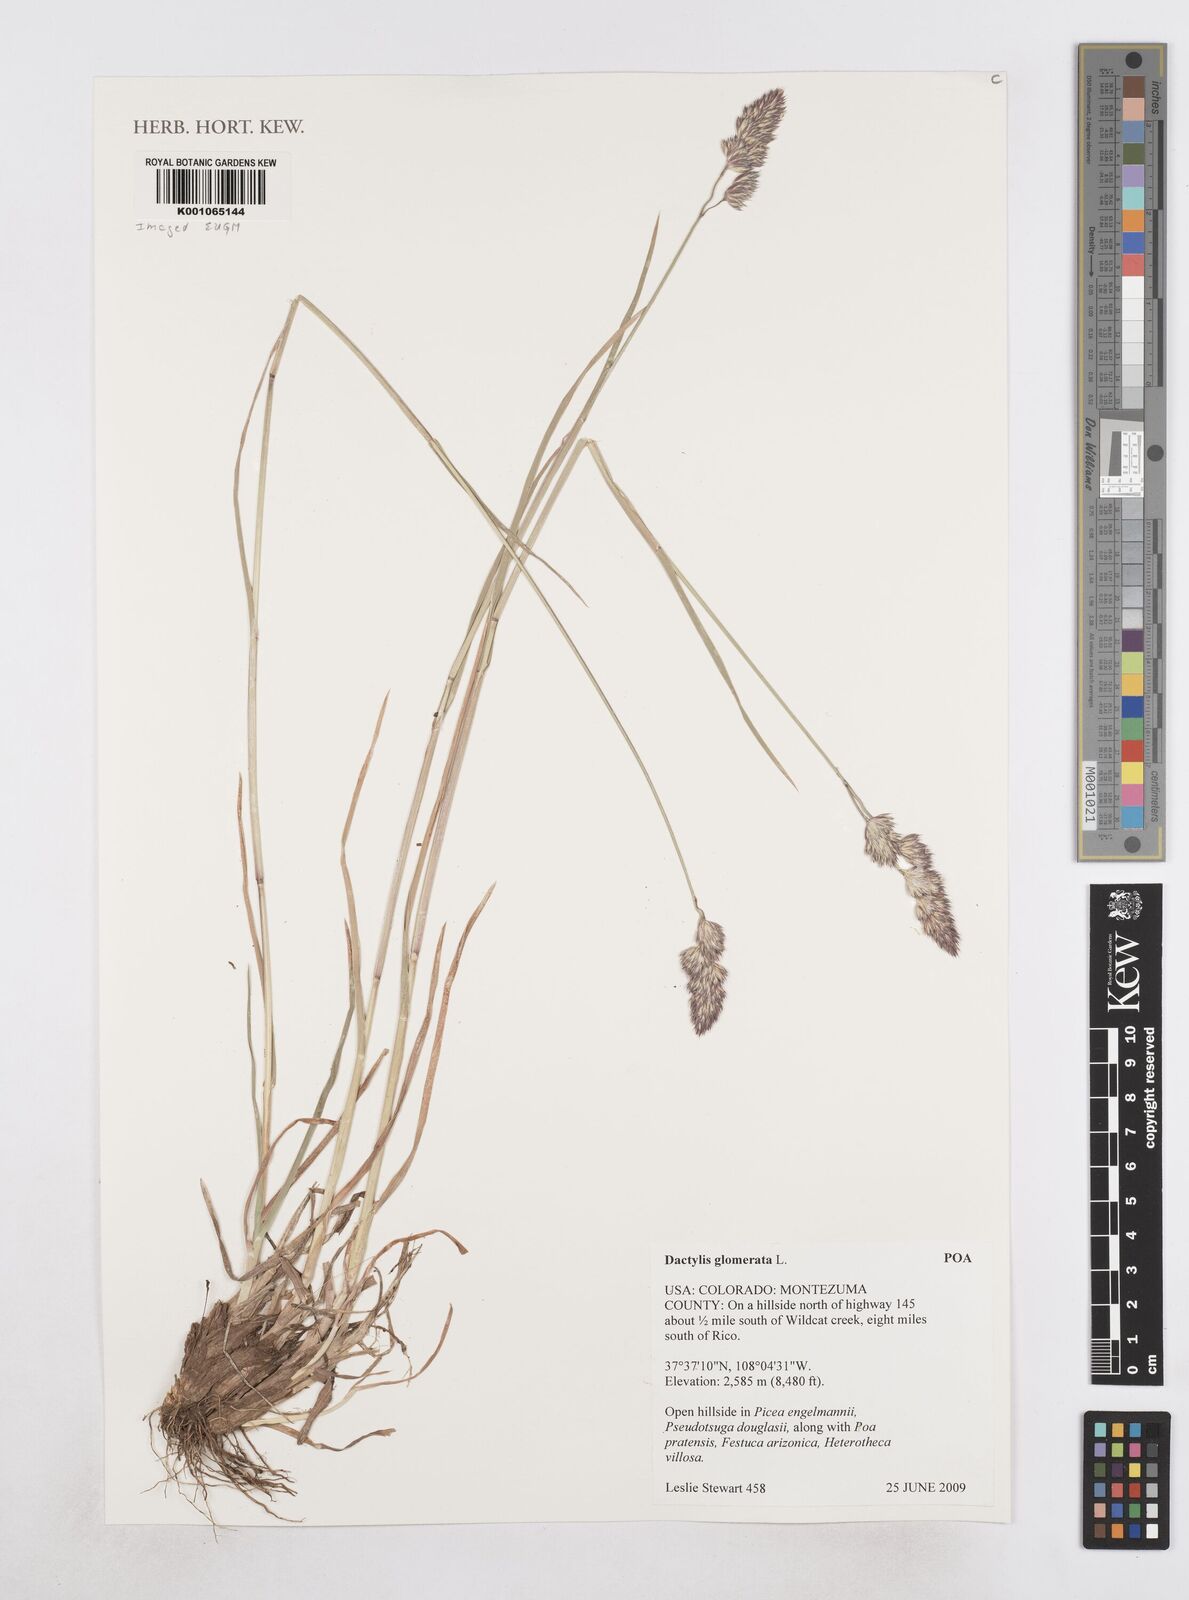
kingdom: Plantae
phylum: Tracheophyta
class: Liliopsida
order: Poales
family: Poaceae
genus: Dactylis
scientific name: Dactylis glomerata
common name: Orchardgrass
